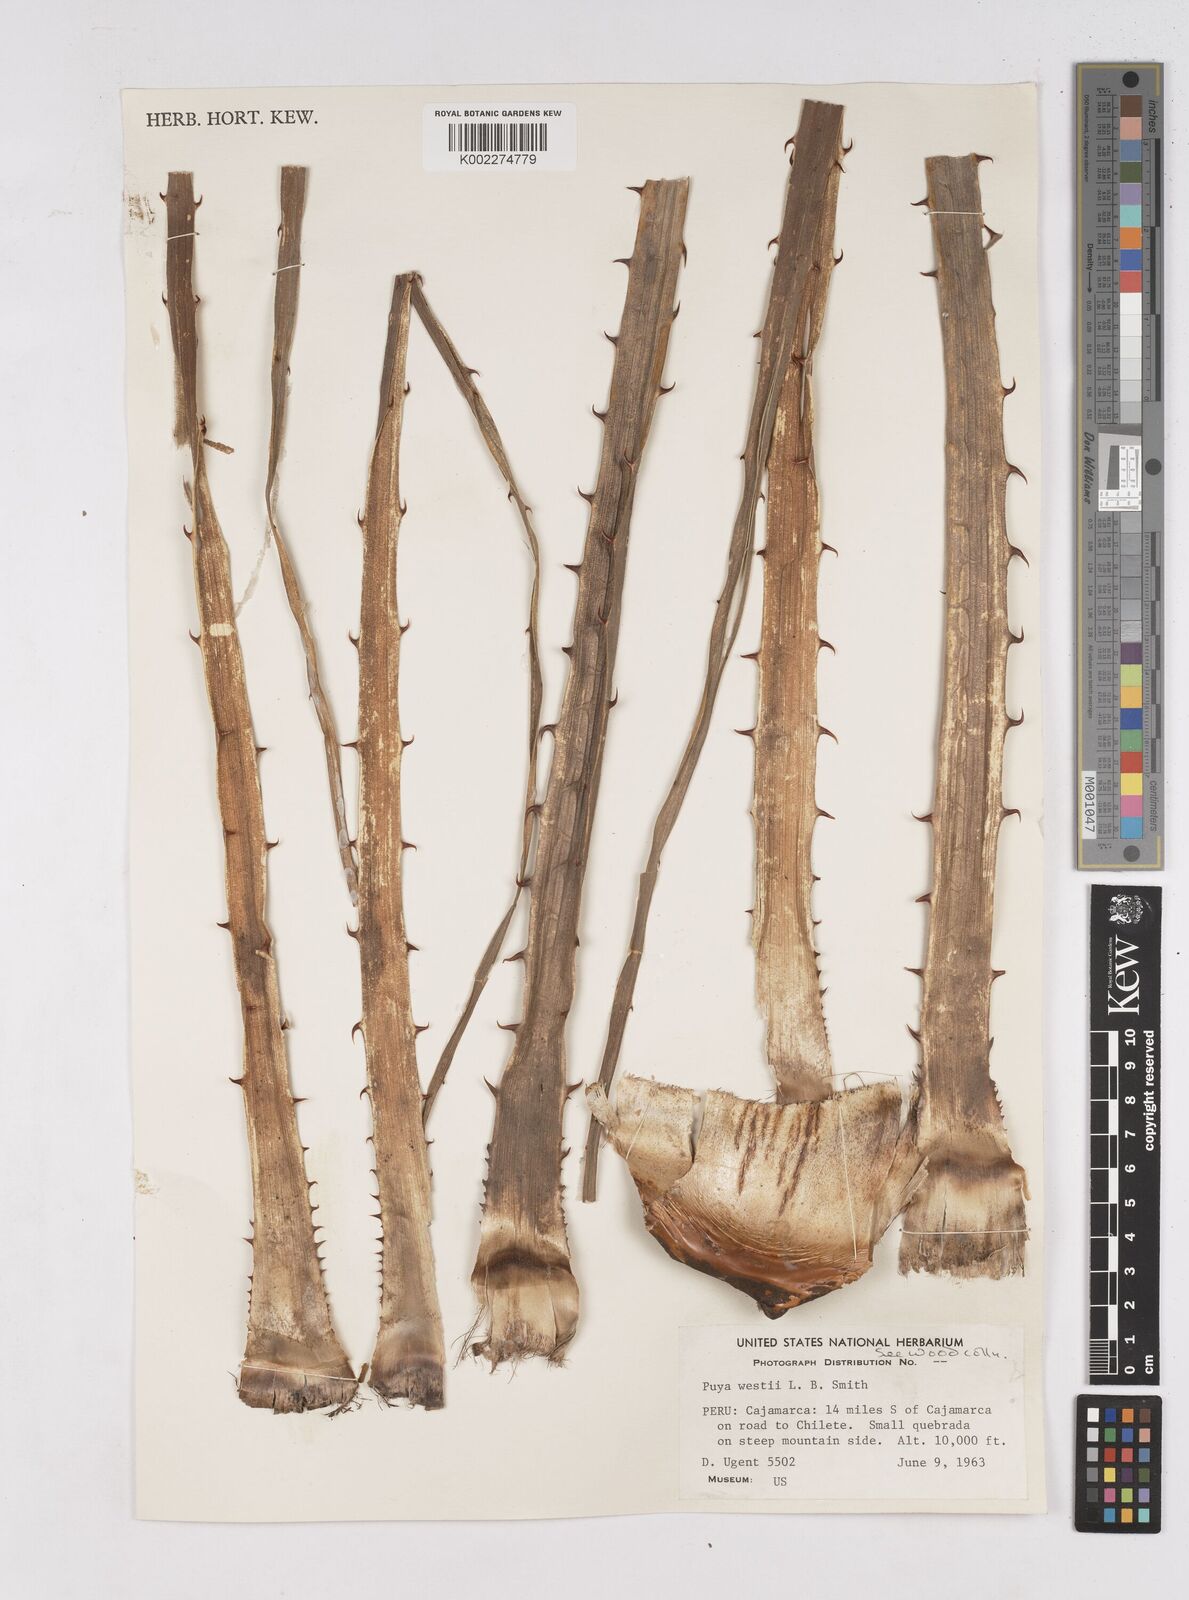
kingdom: Plantae
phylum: Tracheophyta
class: Liliopsida
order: Poales
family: Bromeliaceae
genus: Puya
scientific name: Puya westii
